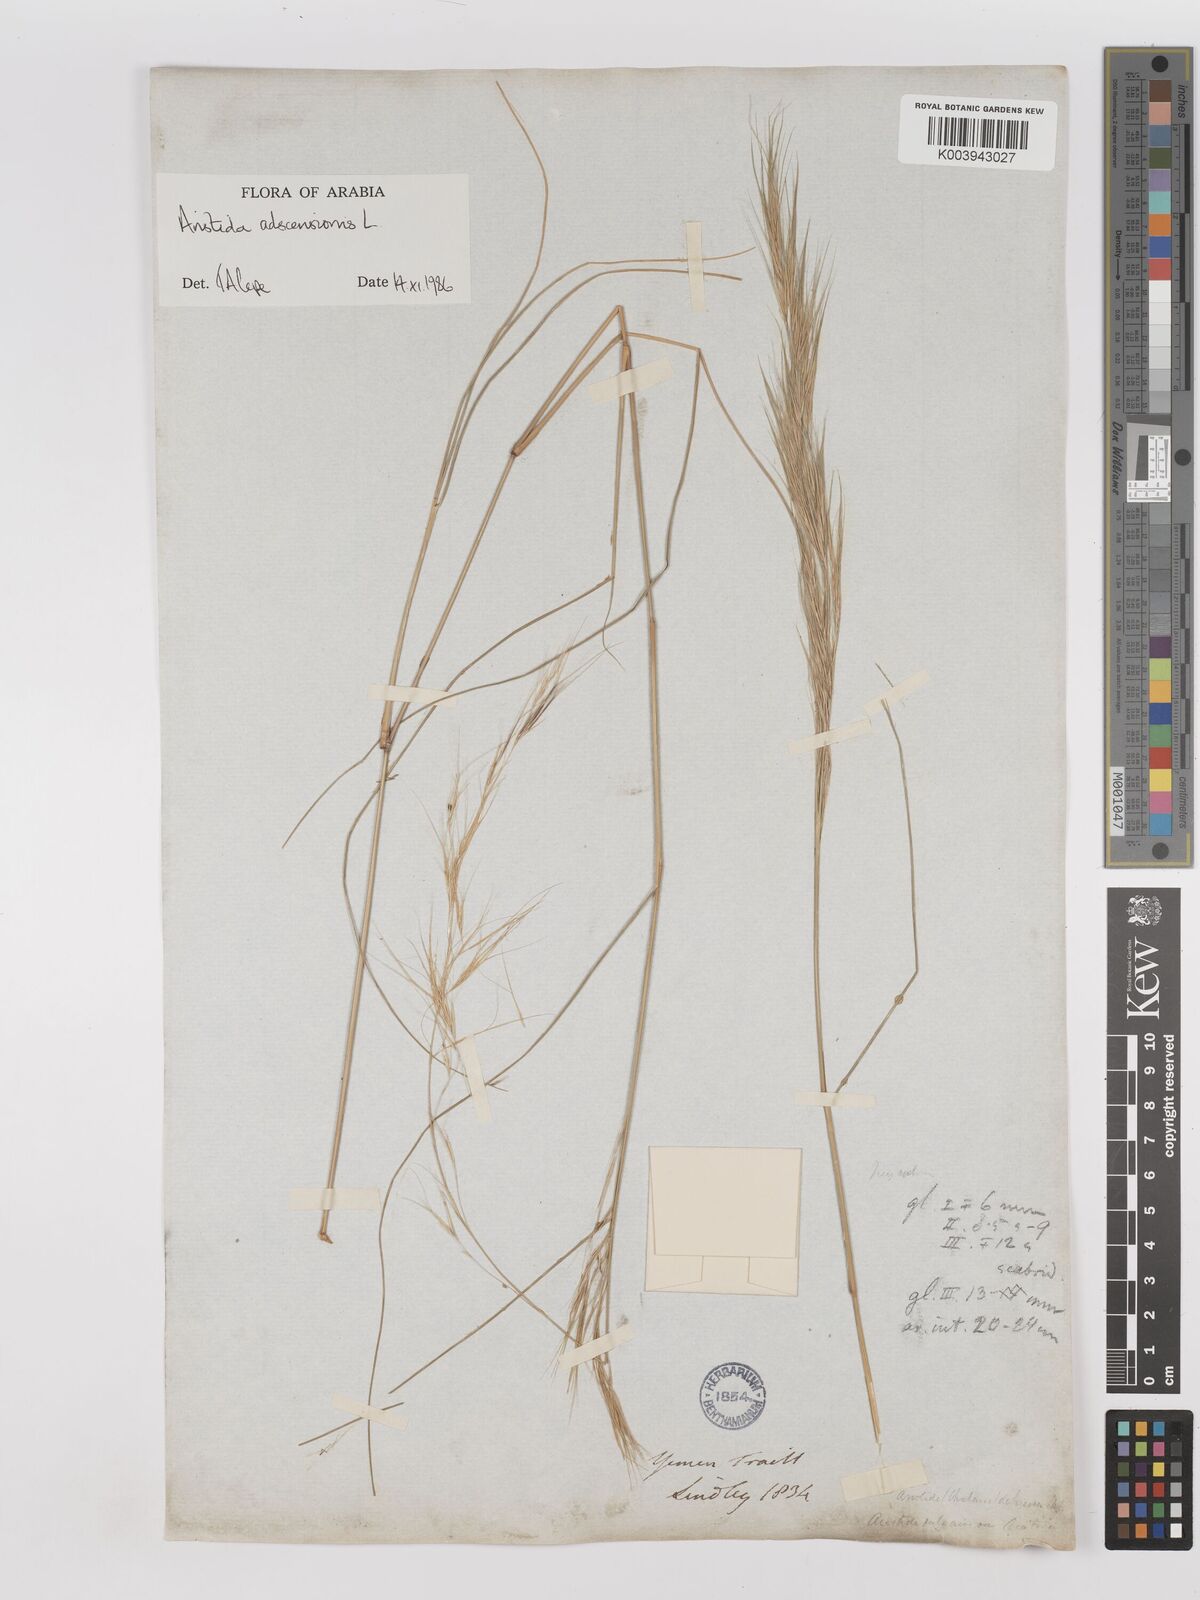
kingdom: Plantae
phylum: Tracheophyta
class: Liliopsida
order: Poales
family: Poaceae
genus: Aristida
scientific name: Aristida adscensionis
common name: Sixweeks threeawn
